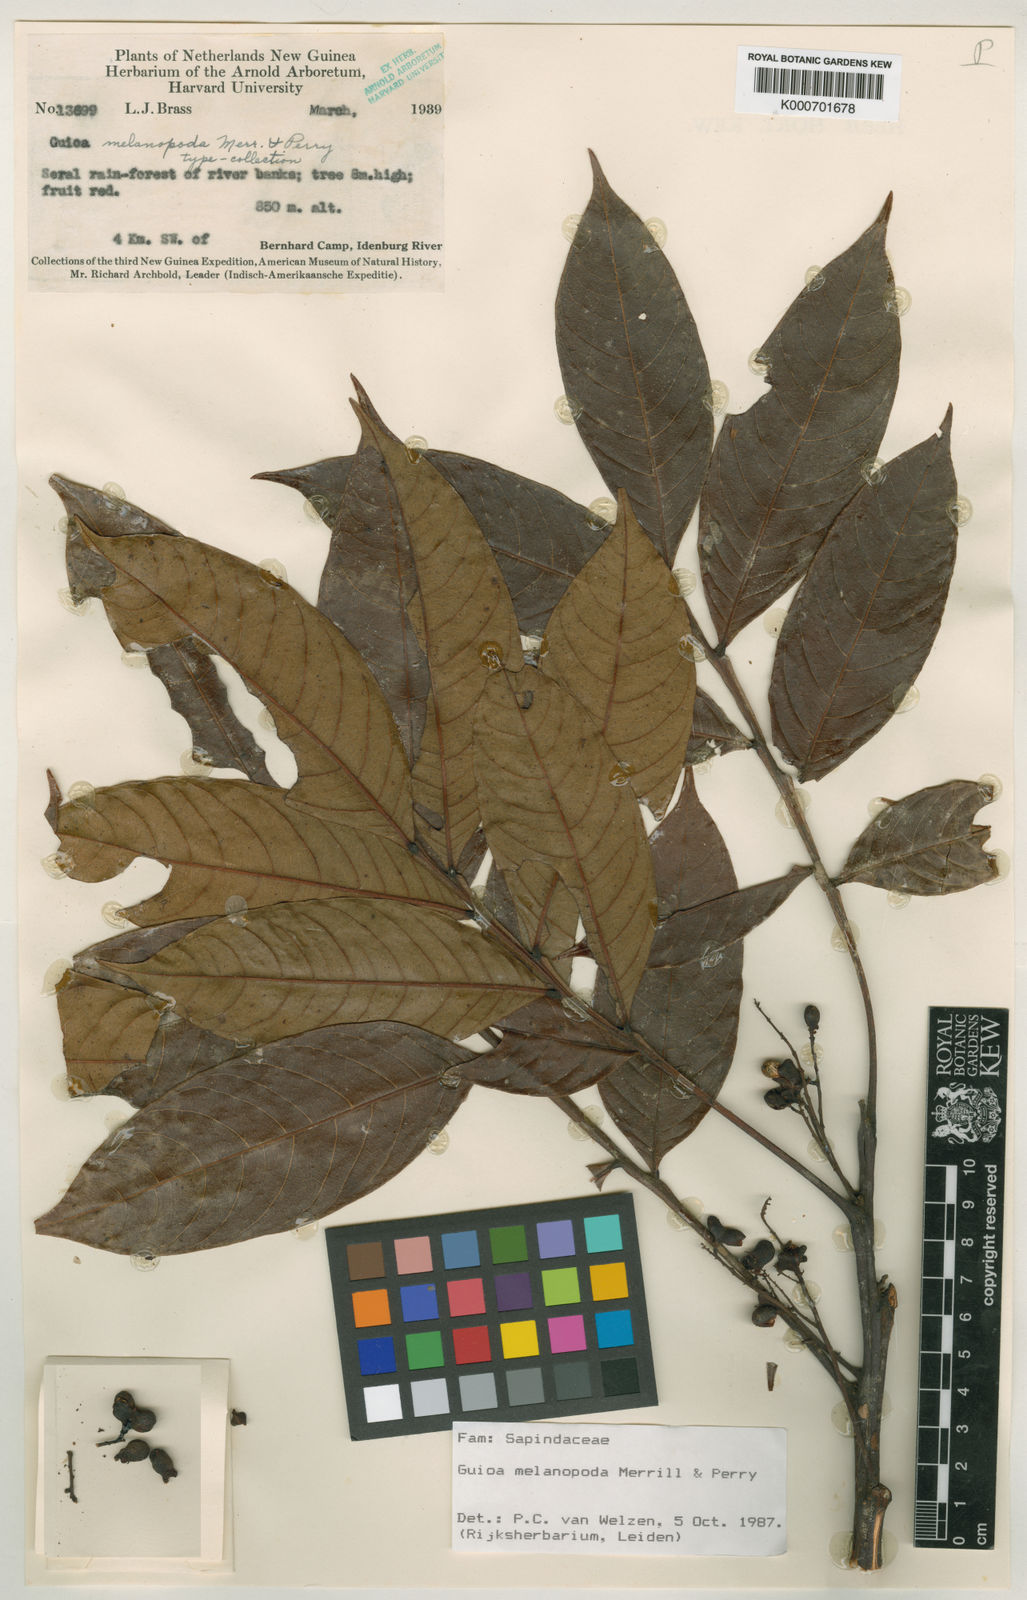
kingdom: Plantae
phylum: Tracheophyta
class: Magnoliopsida
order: Sapindales
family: Sapindaceae
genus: Guioa
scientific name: Guioa melanopoda
